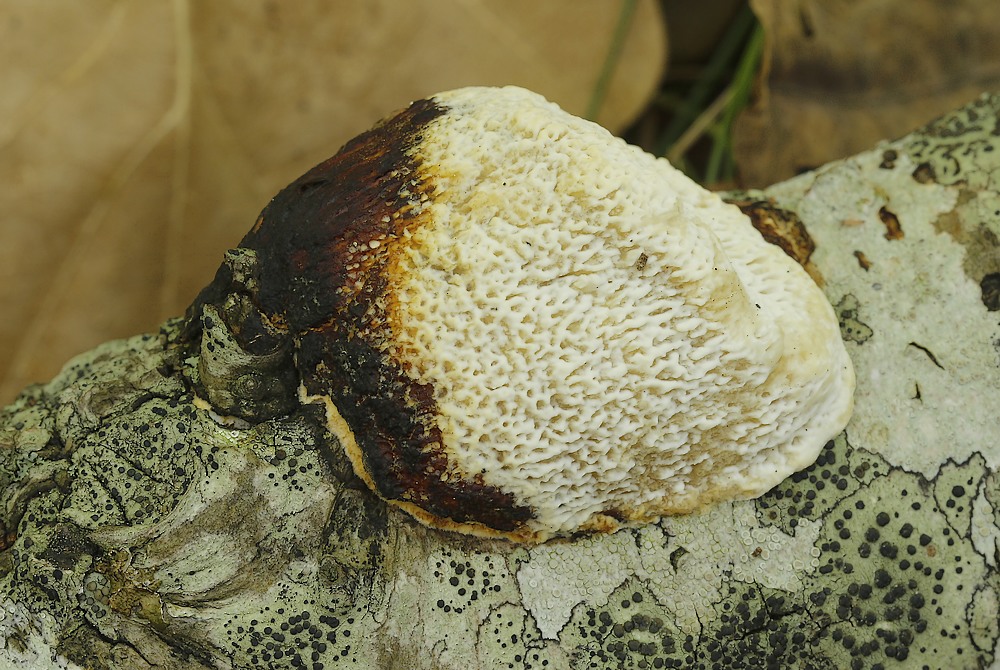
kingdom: Fungi
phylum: Basidiomycota
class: Agaricomycetes
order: Polyporales
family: Polyporaceae
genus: Szczepkamyces
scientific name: Szczepkamyces campestris
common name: hasselporesvamp
